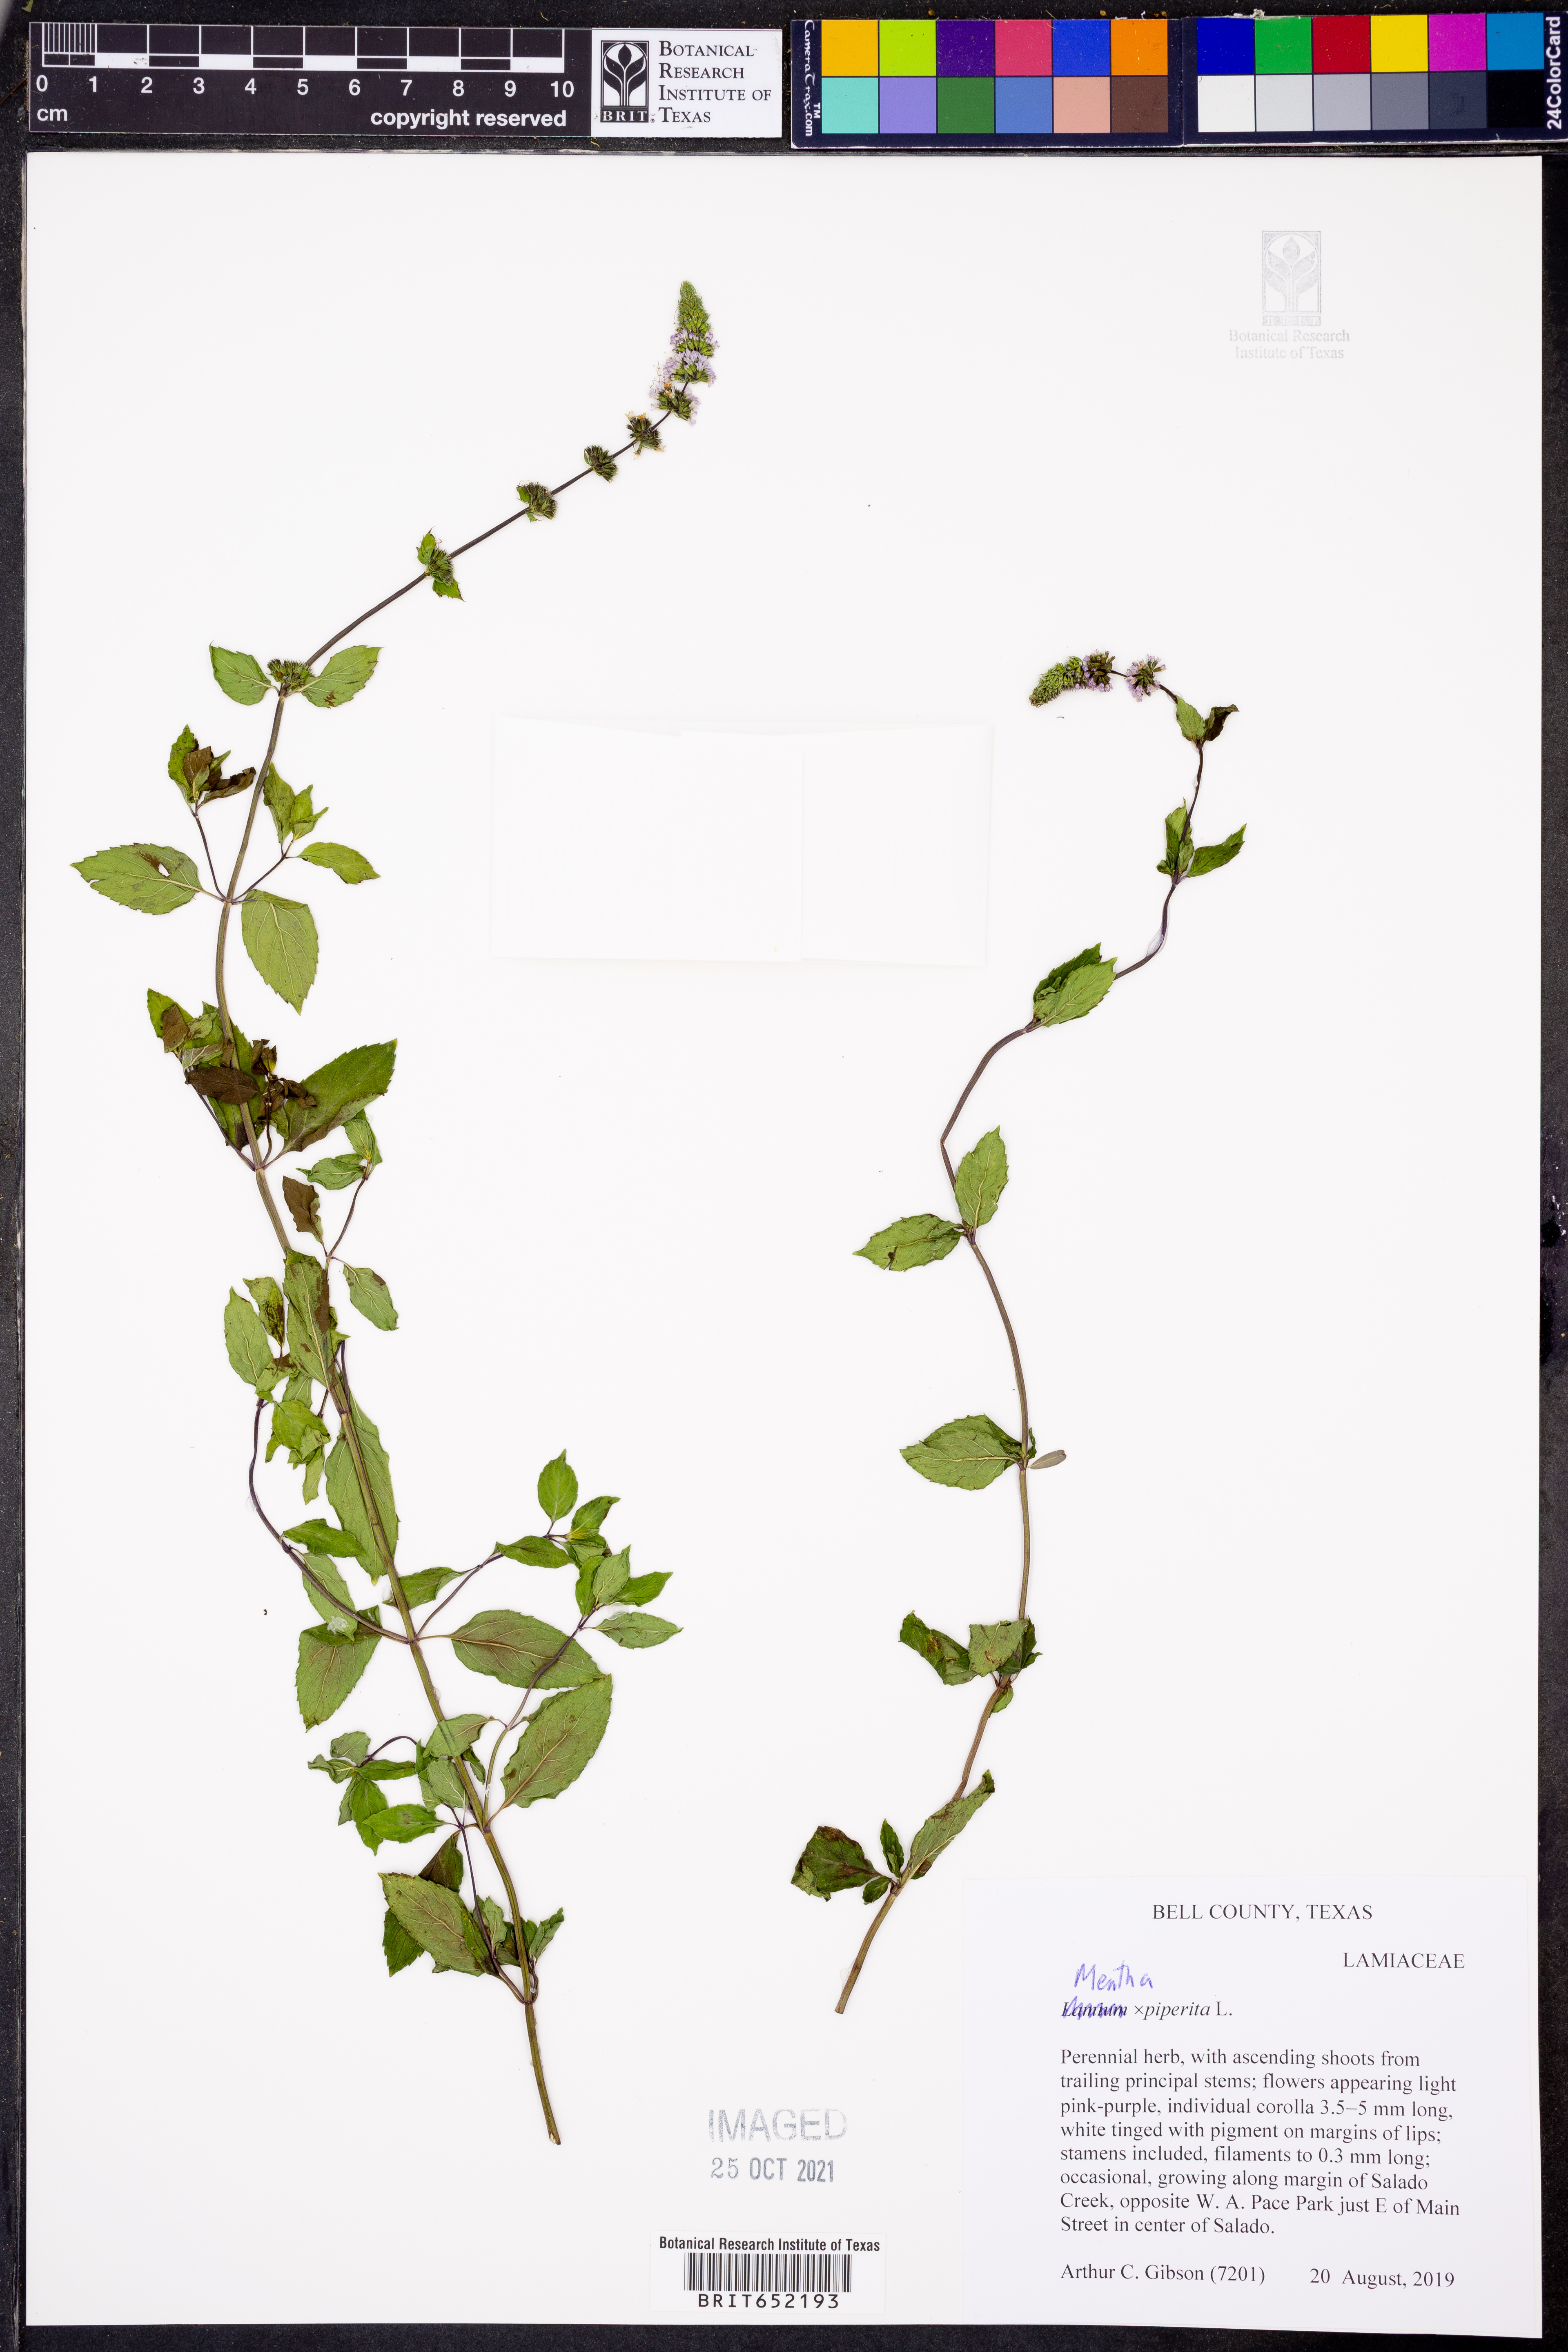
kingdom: Plantae
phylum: Tracheophyta
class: Magnoliopsida
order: Lamiales
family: Lamiaceae
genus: Mentha
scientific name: Mentha piperita
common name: Peppermint
